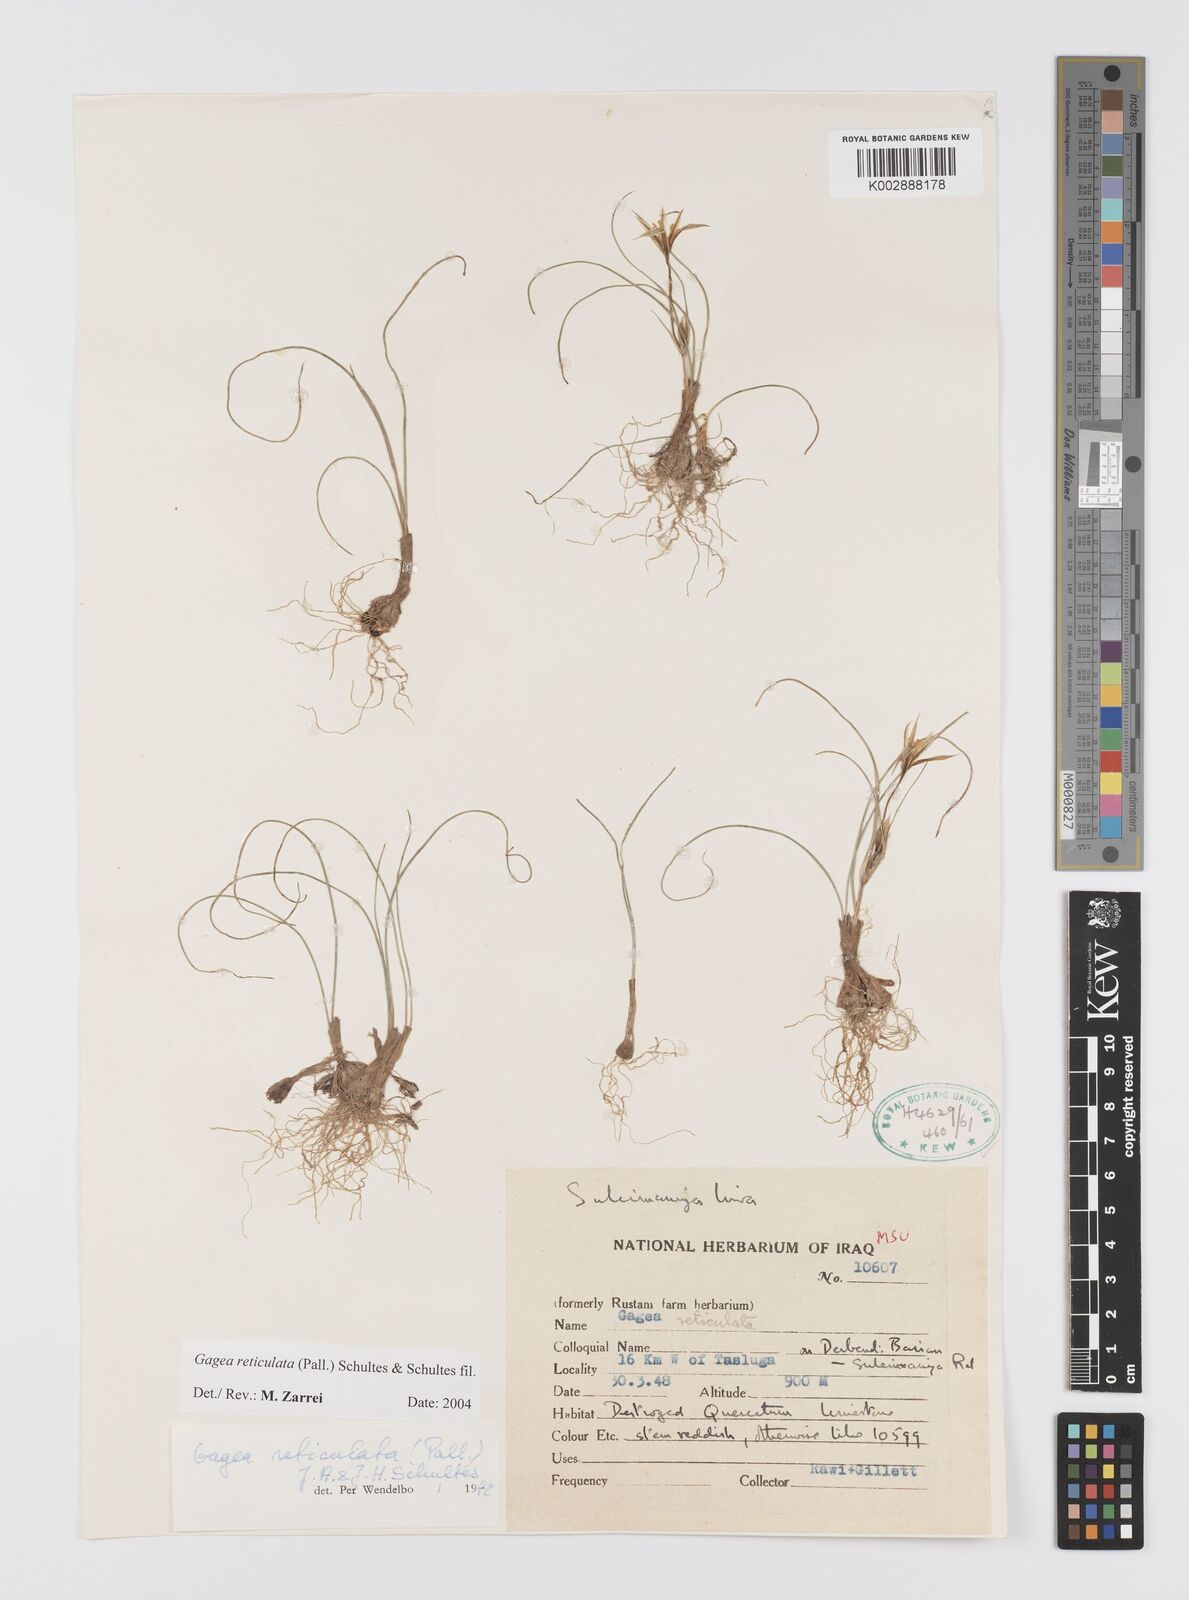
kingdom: Plantae
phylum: Tracheophyta
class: Liliopsida
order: Liliales
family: Liliaceae
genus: Gagea
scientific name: Gagea reticulata
